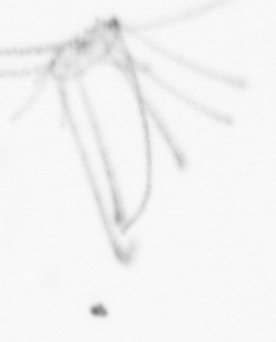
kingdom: Animalia
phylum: Cnidaria
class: Hydrozoa
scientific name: Hydrozoa
